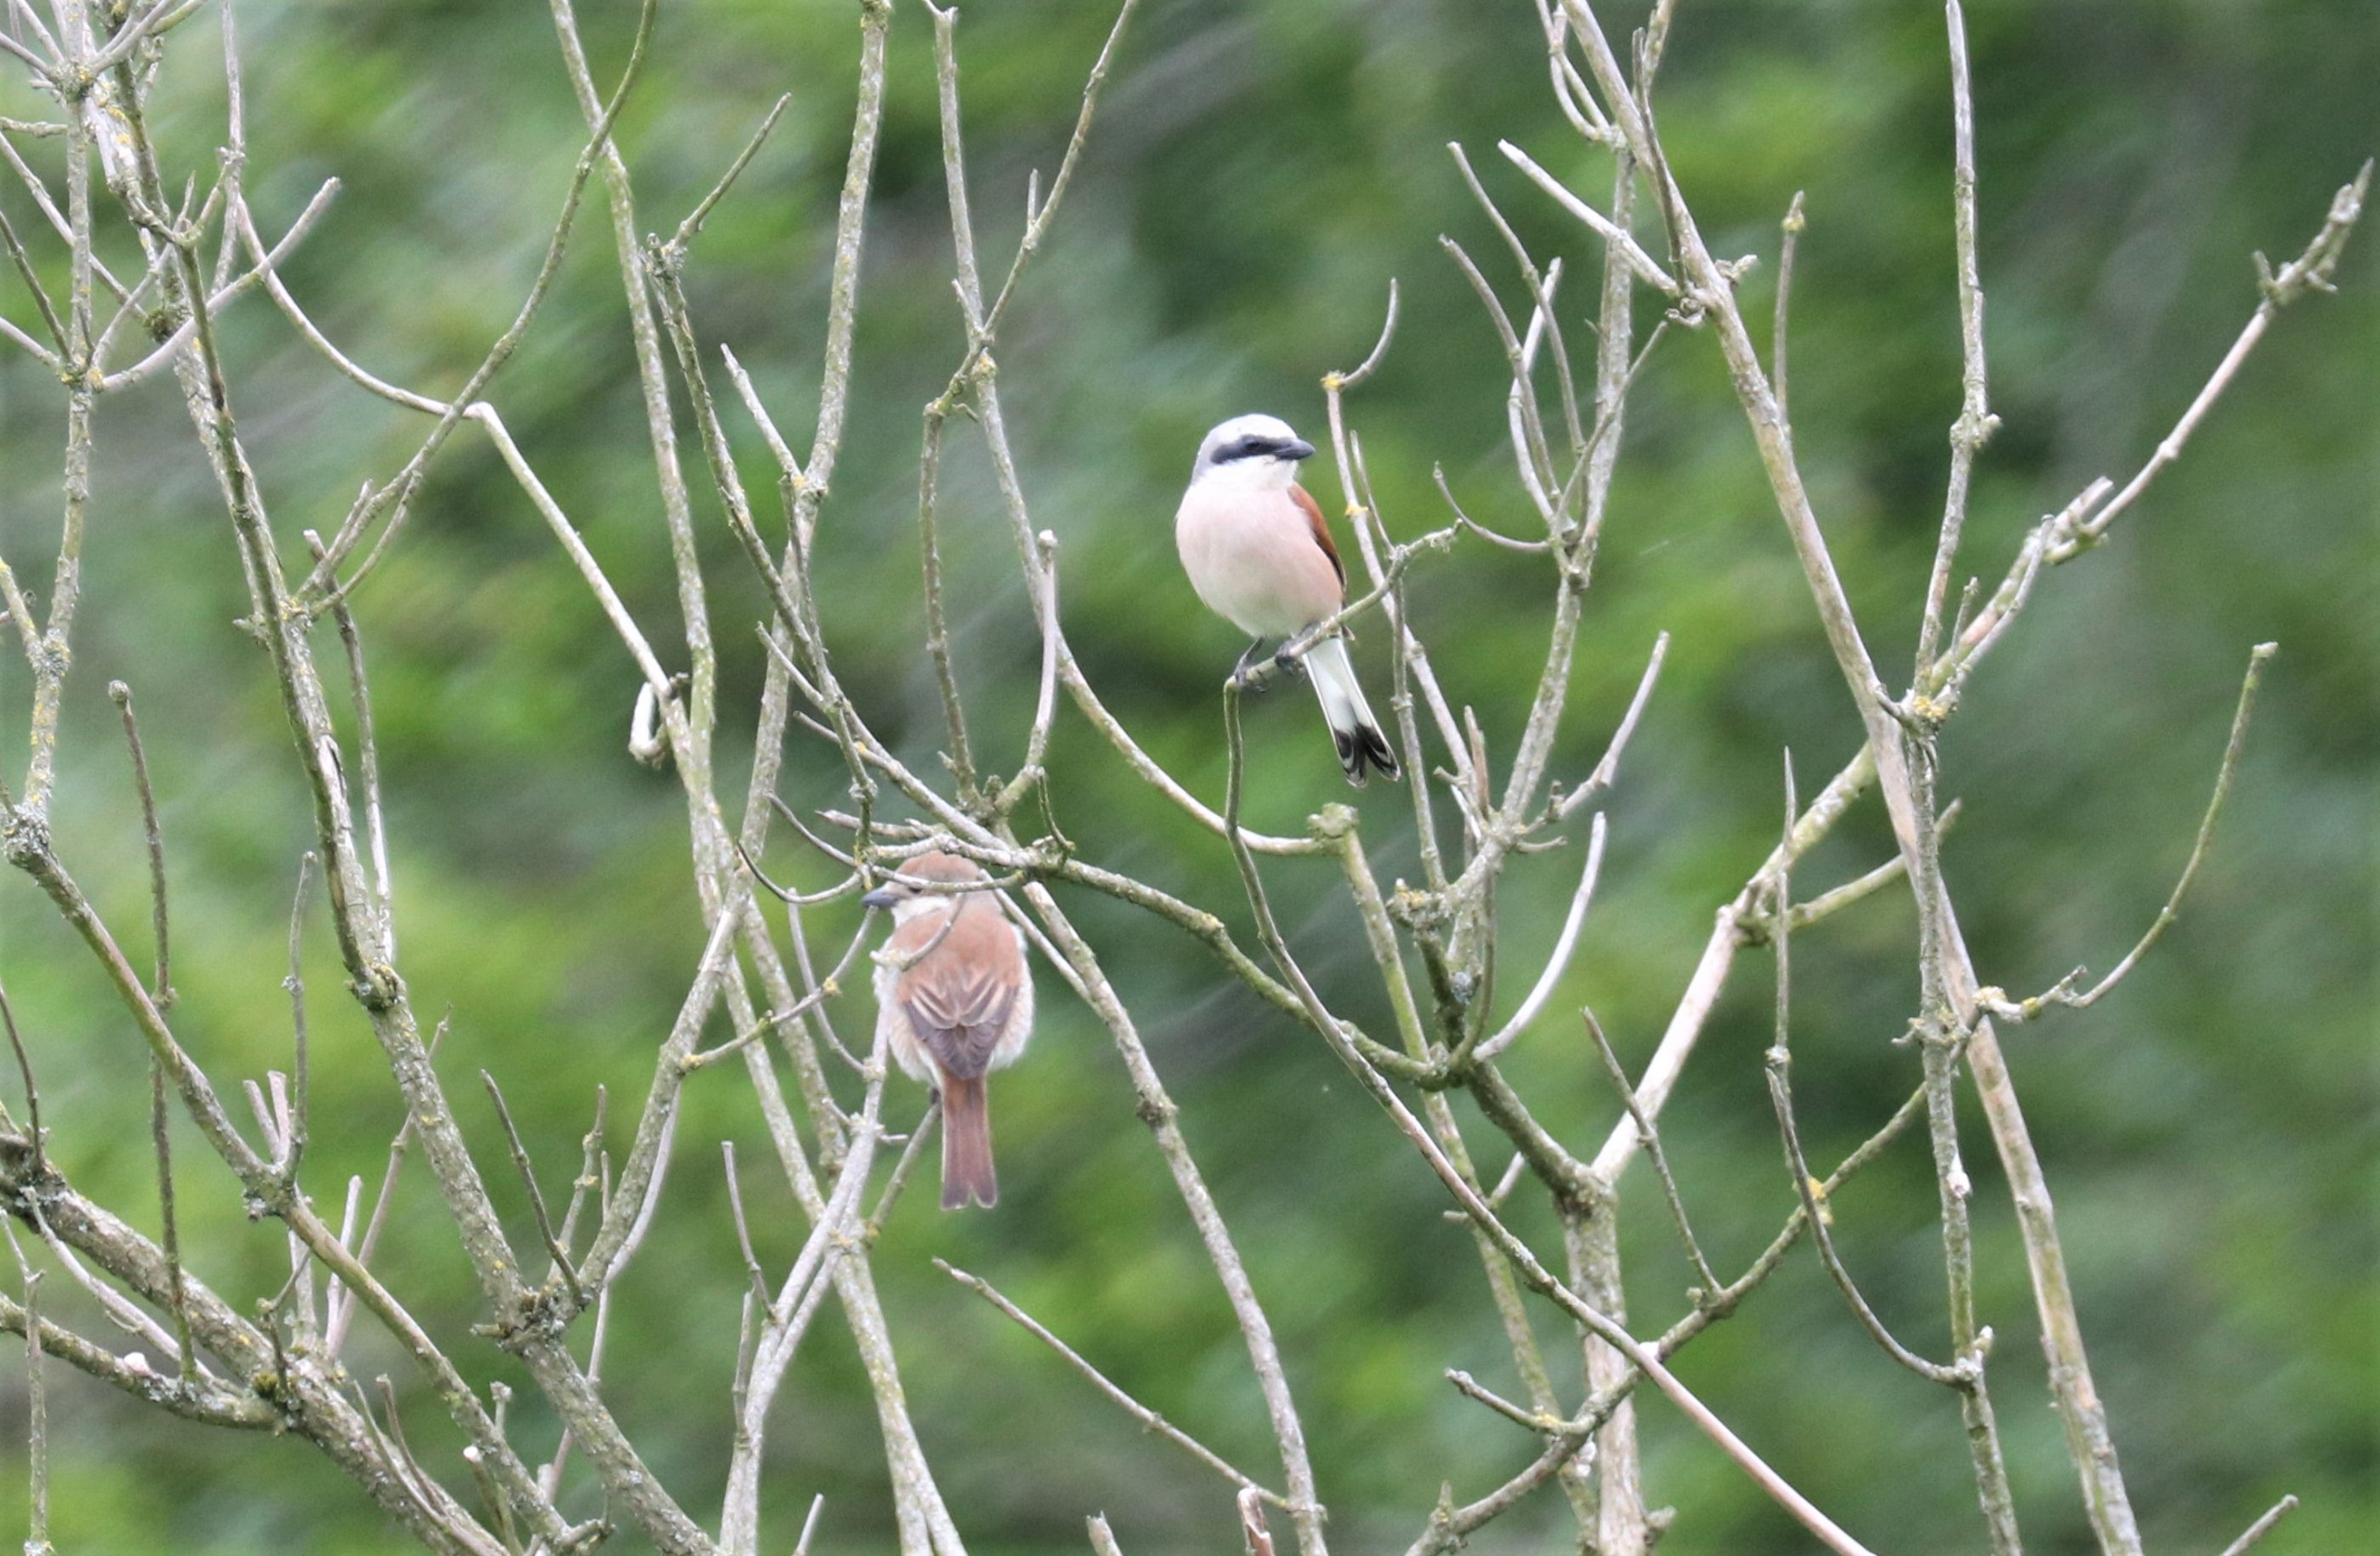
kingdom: Animalia
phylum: Chordata
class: Aves
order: Passeriformes
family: Laniidae
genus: Lanius
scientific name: Lanius collurio
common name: Rødrygget tornskade
